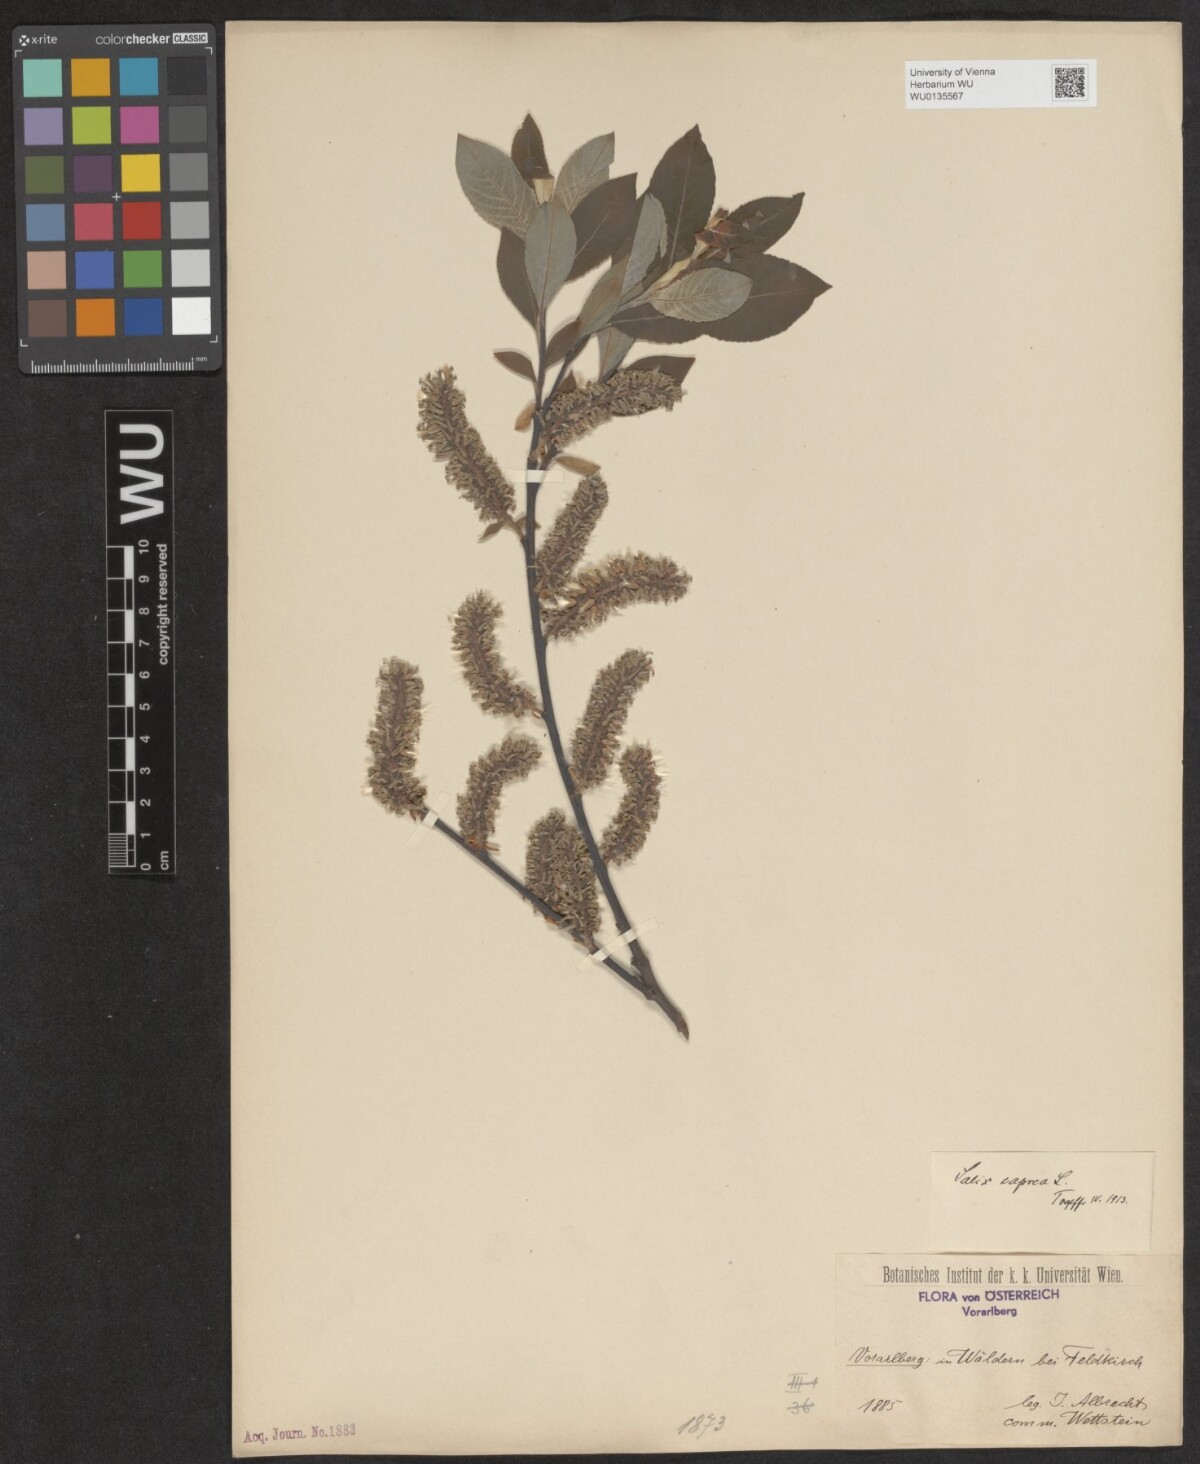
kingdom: Plantae
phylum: Tracheophyta
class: Magnoliopsida
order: Malpighiales
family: Salicaceae
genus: Salix
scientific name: Salix caprea
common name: Goat willow
